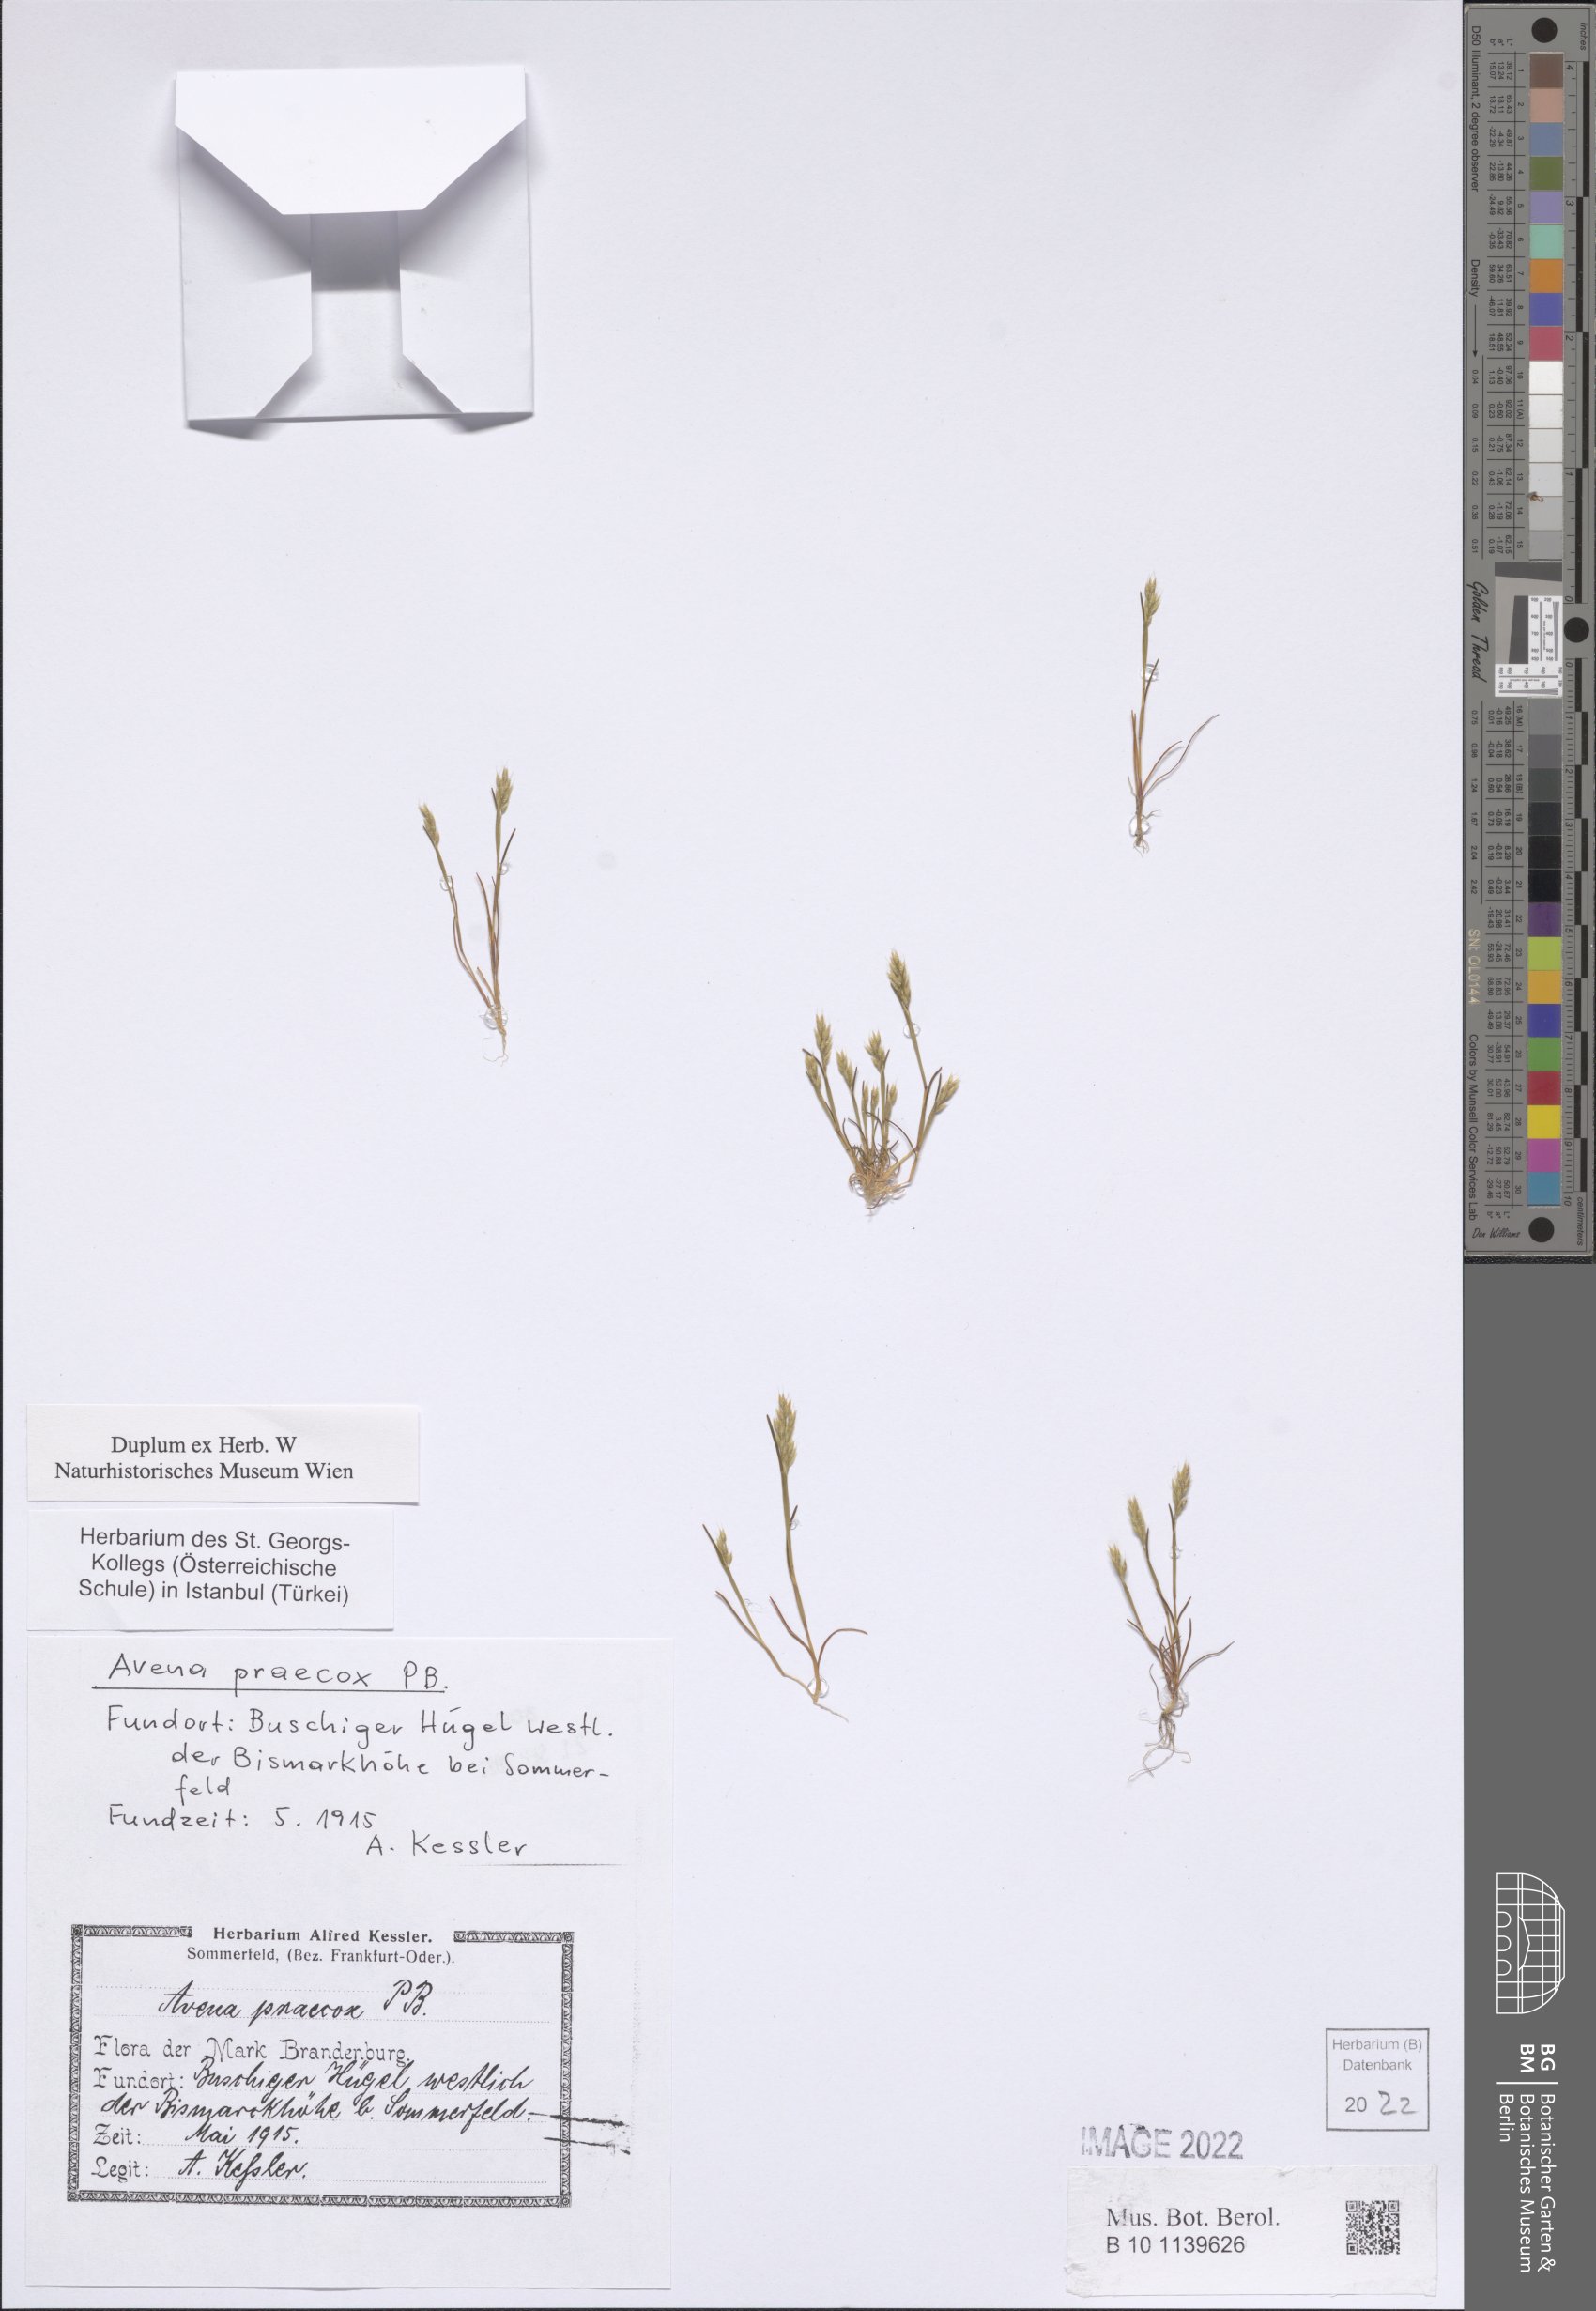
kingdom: Plantae
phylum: Tracheophyta
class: Liliopsida
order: Poales
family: Poaceae
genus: Aira
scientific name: Aira praecox
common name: Early hair-grass
